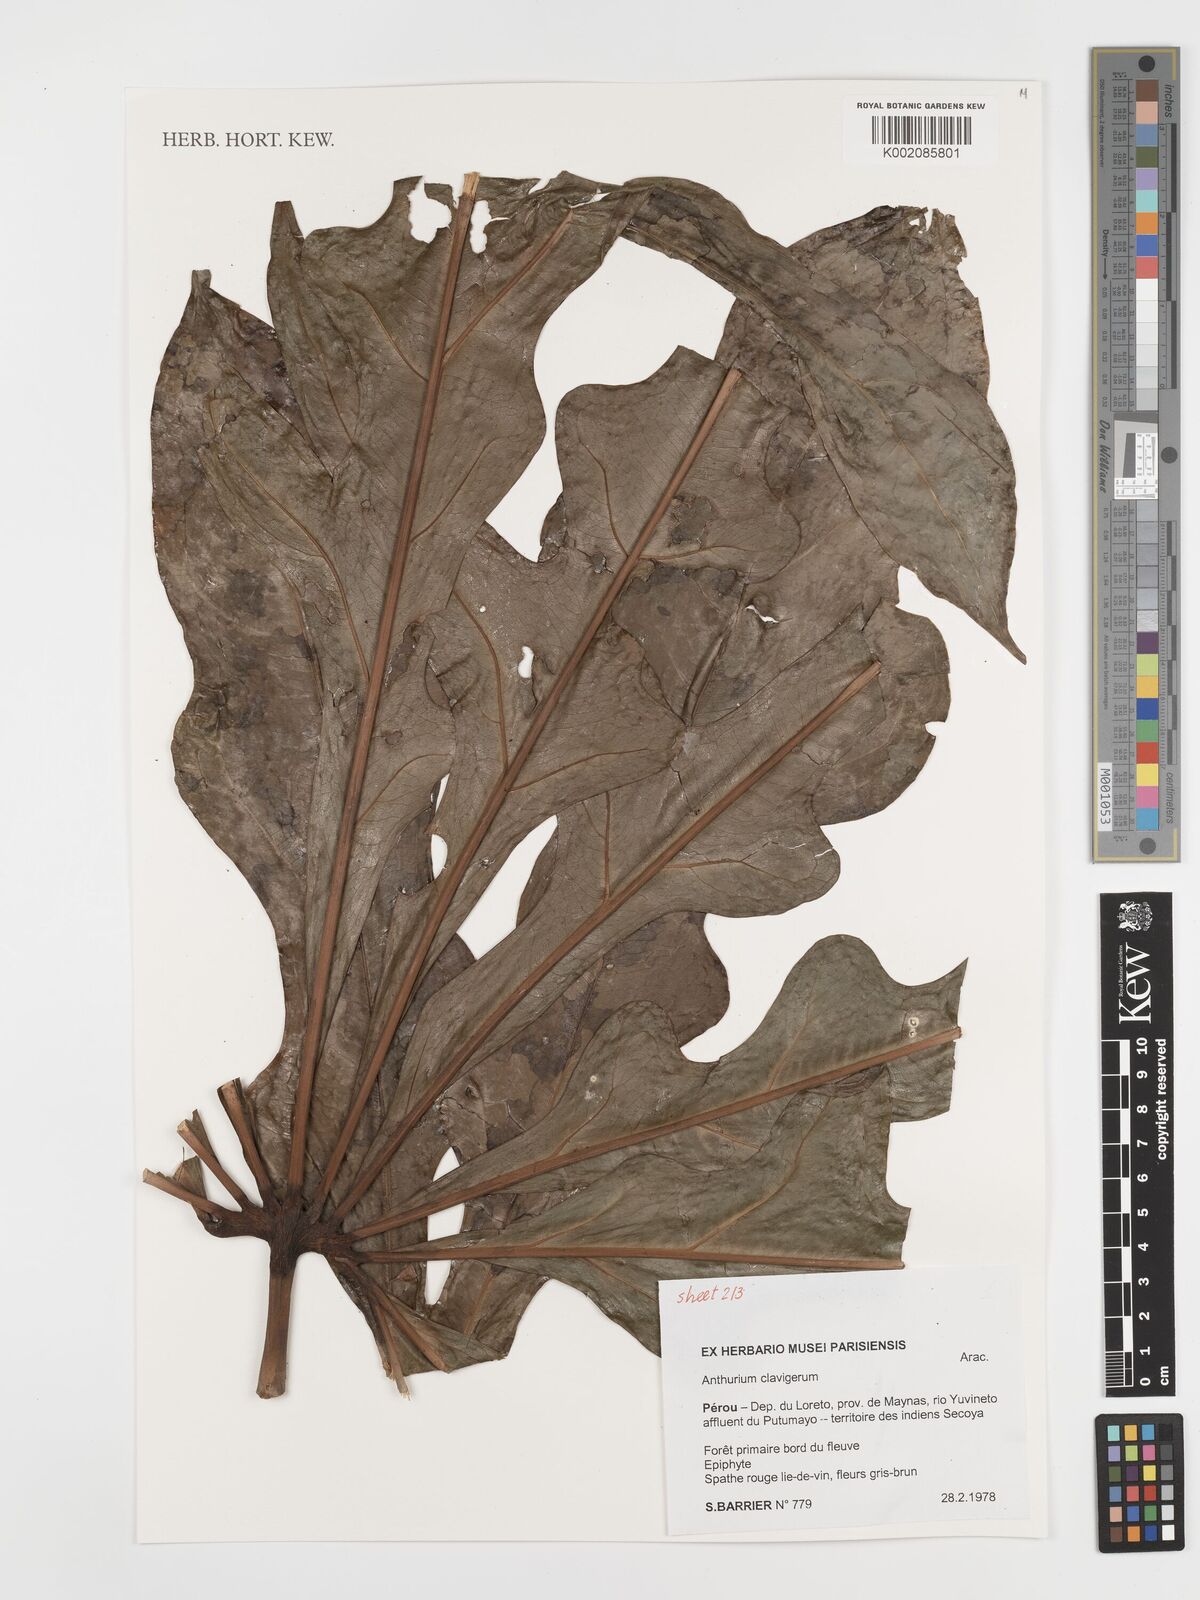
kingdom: Plantae
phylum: Tracheophyta
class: Liliopsida
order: Alismatales
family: Araceae
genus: Anthurium
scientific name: Anthurium clavigerum
